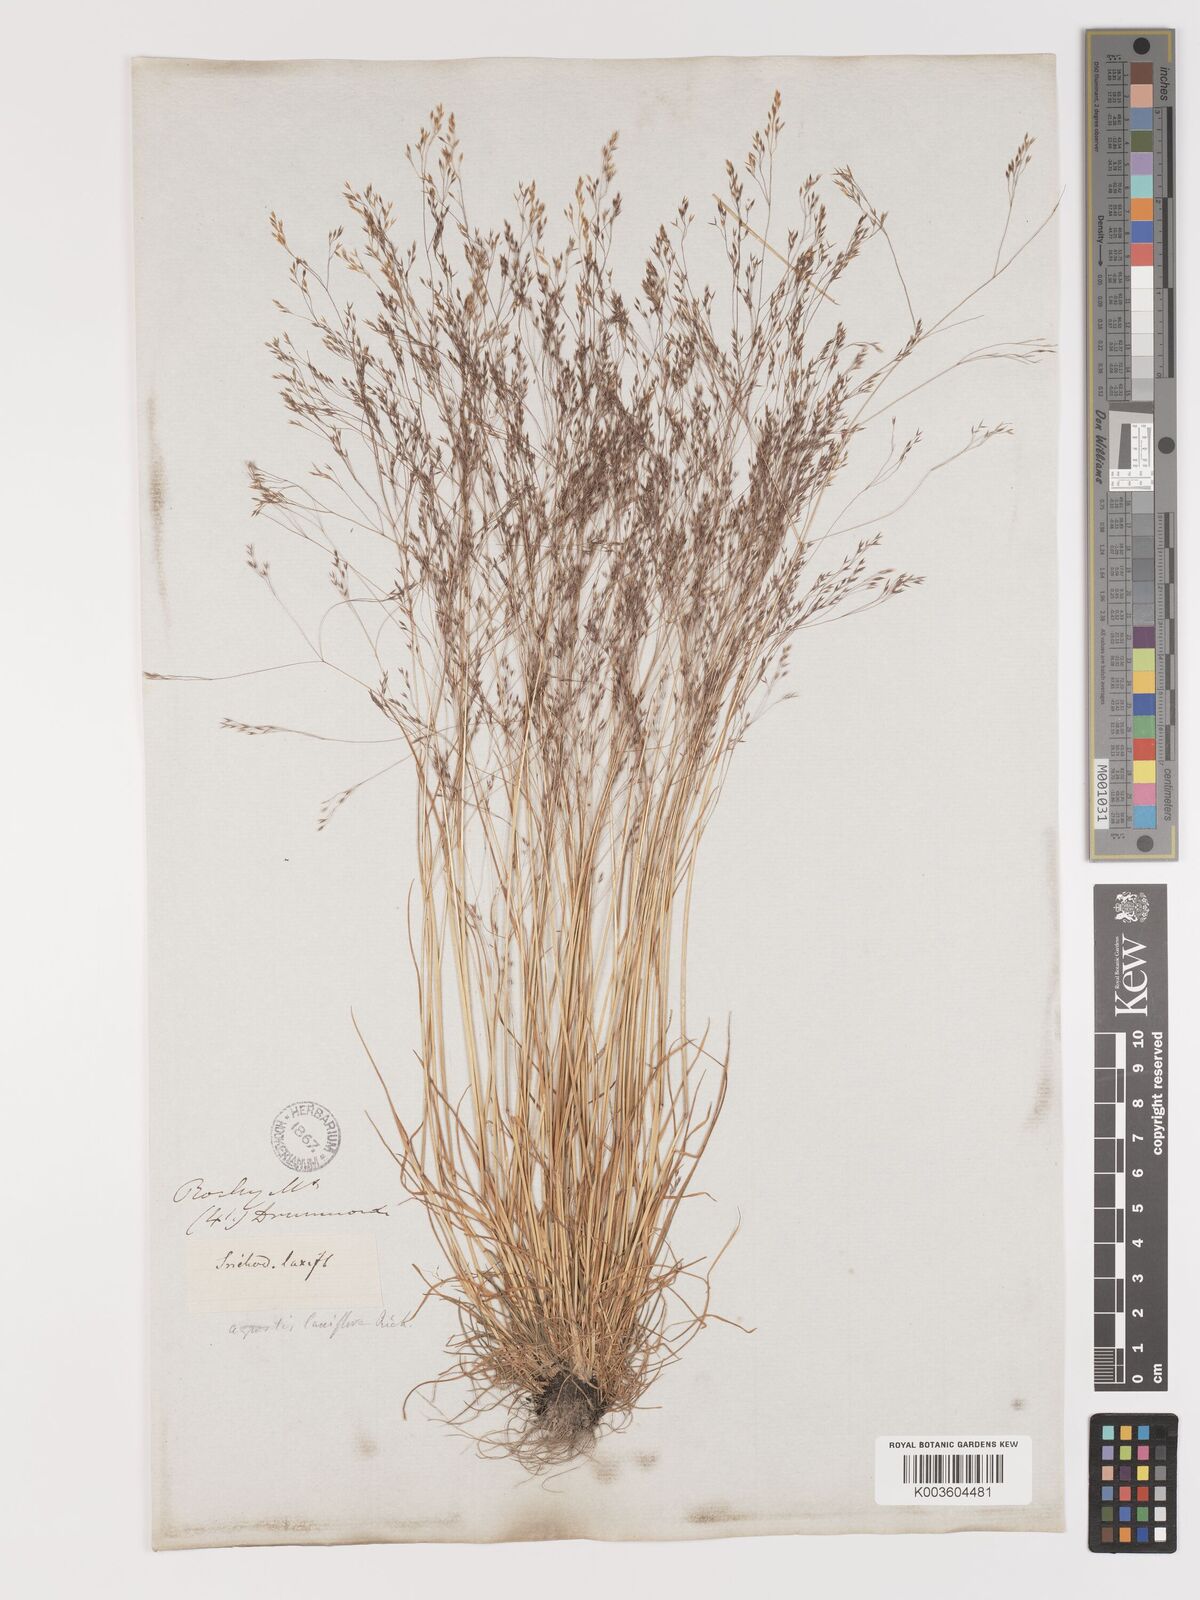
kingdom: Plantae
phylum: Tracheophyta
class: Liliopsida
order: Poales
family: Poaceae
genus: Agrostis
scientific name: Agrostis hyemalis
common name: Small bent
